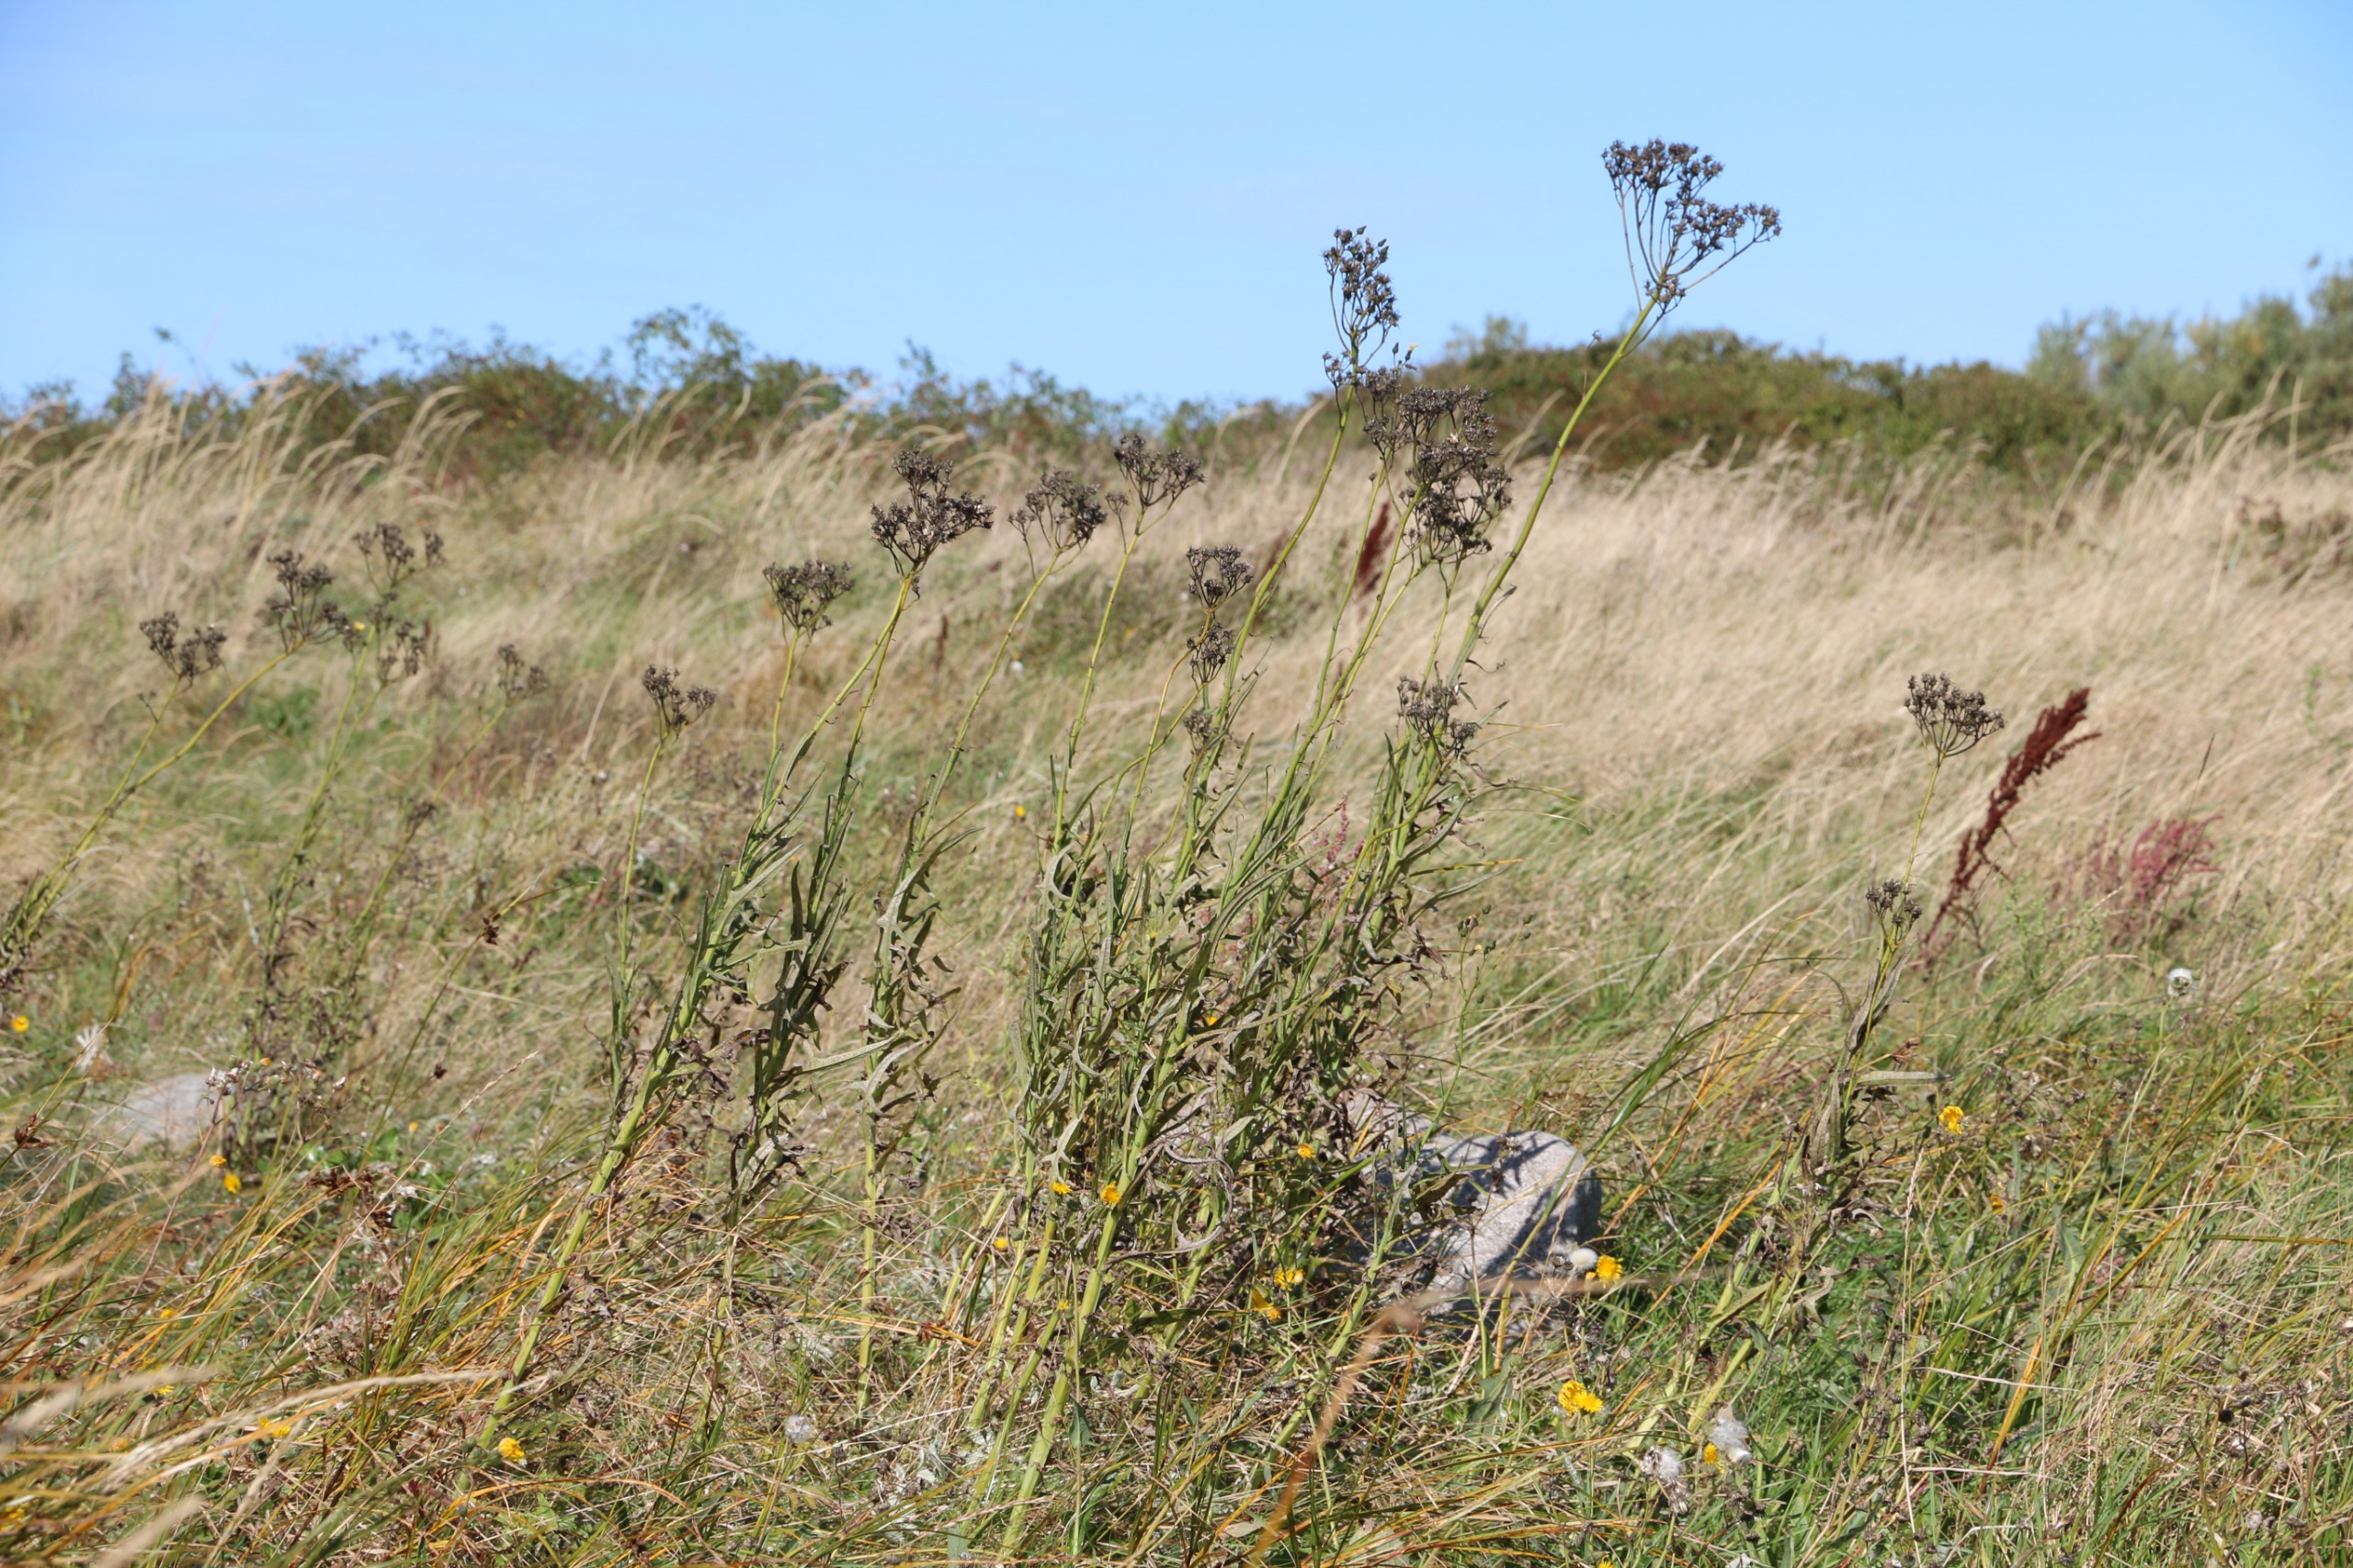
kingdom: Plantae
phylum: Tracheophyta
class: Magnoliopsida
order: Asterales
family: Asteraceae
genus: Sonchus
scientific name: Sonchus palustris
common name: Kær-svinemælk
